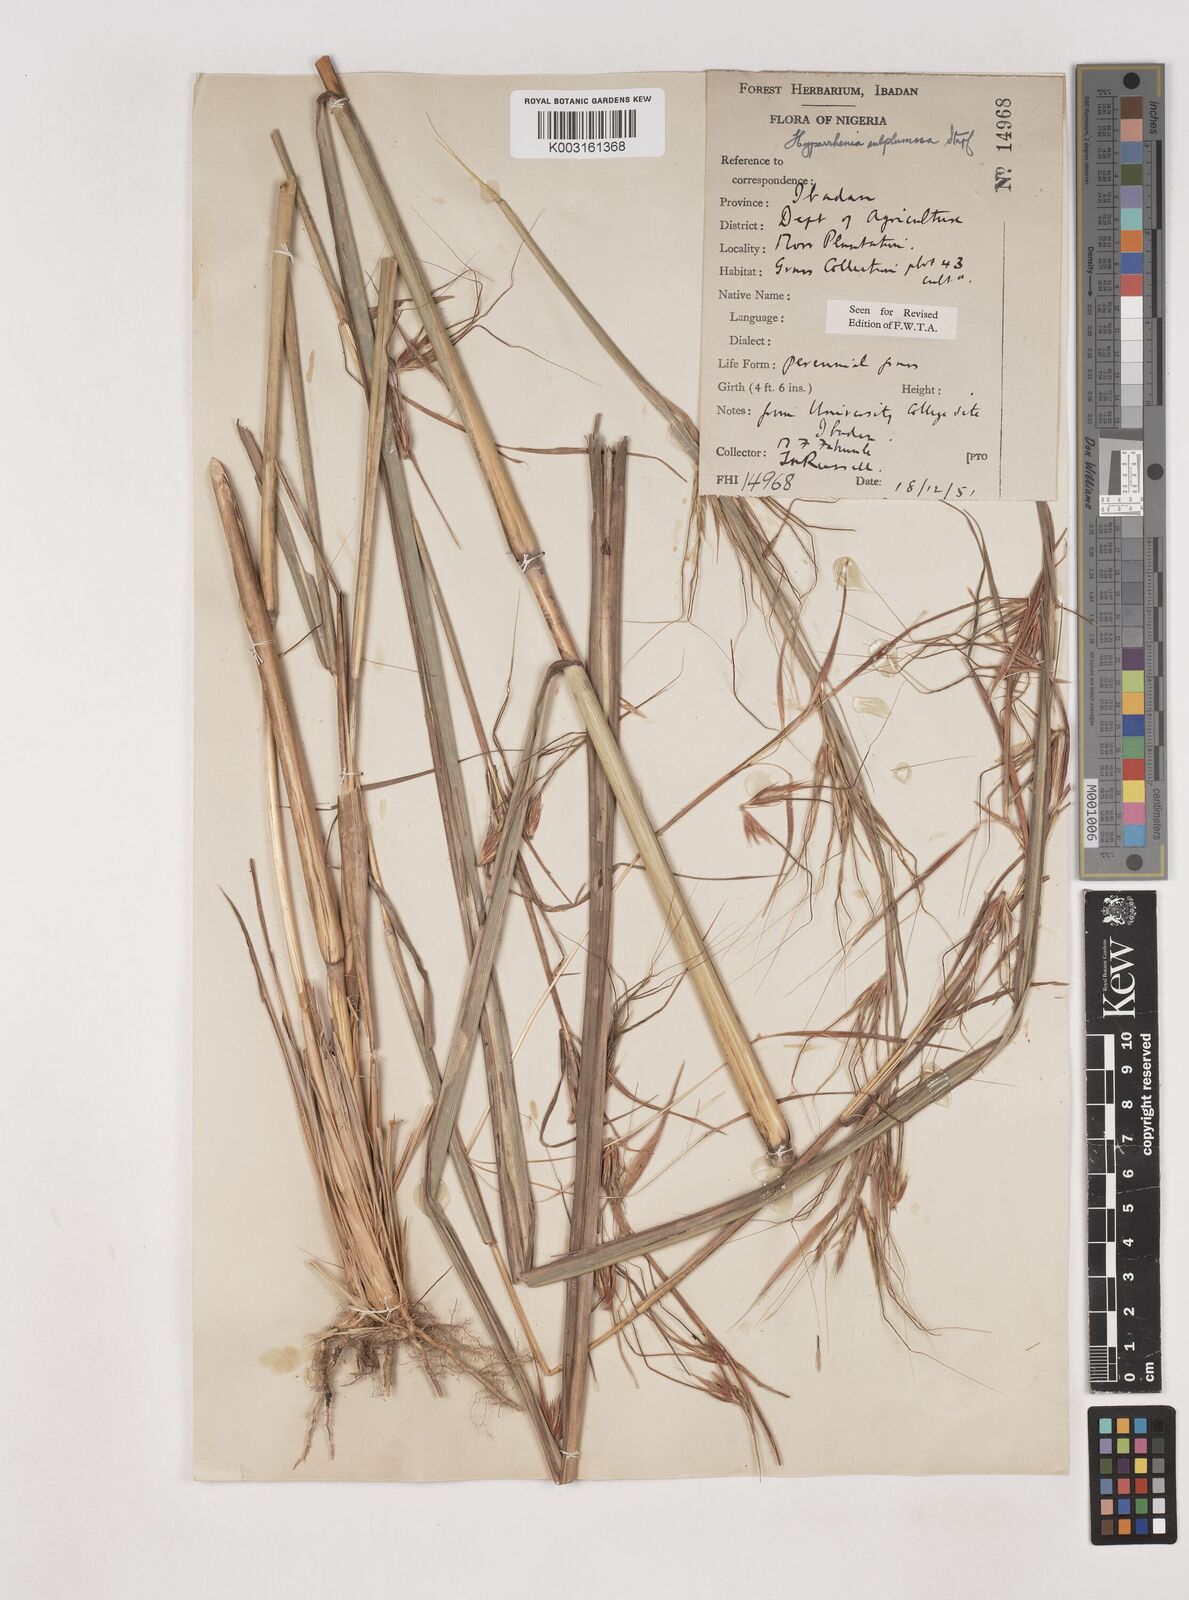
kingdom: Plantae
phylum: Tracheophyta
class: Liliopsida
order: Poales
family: Poaceae
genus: Hyparrhenia
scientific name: Hyparrhenia subplumosa
